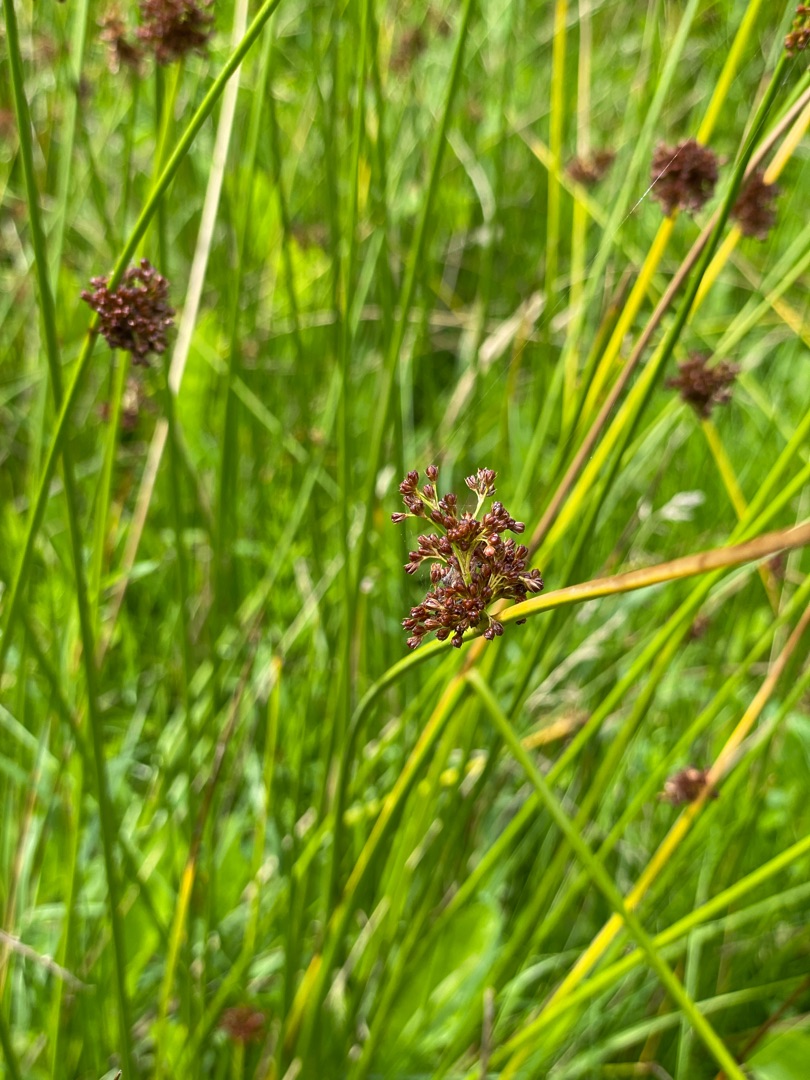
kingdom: Plantae
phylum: Tracheophyta
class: Liliopsida
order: Poales
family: Juncaceae
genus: Juncus
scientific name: Juncus effusus
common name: Lyse-siv
